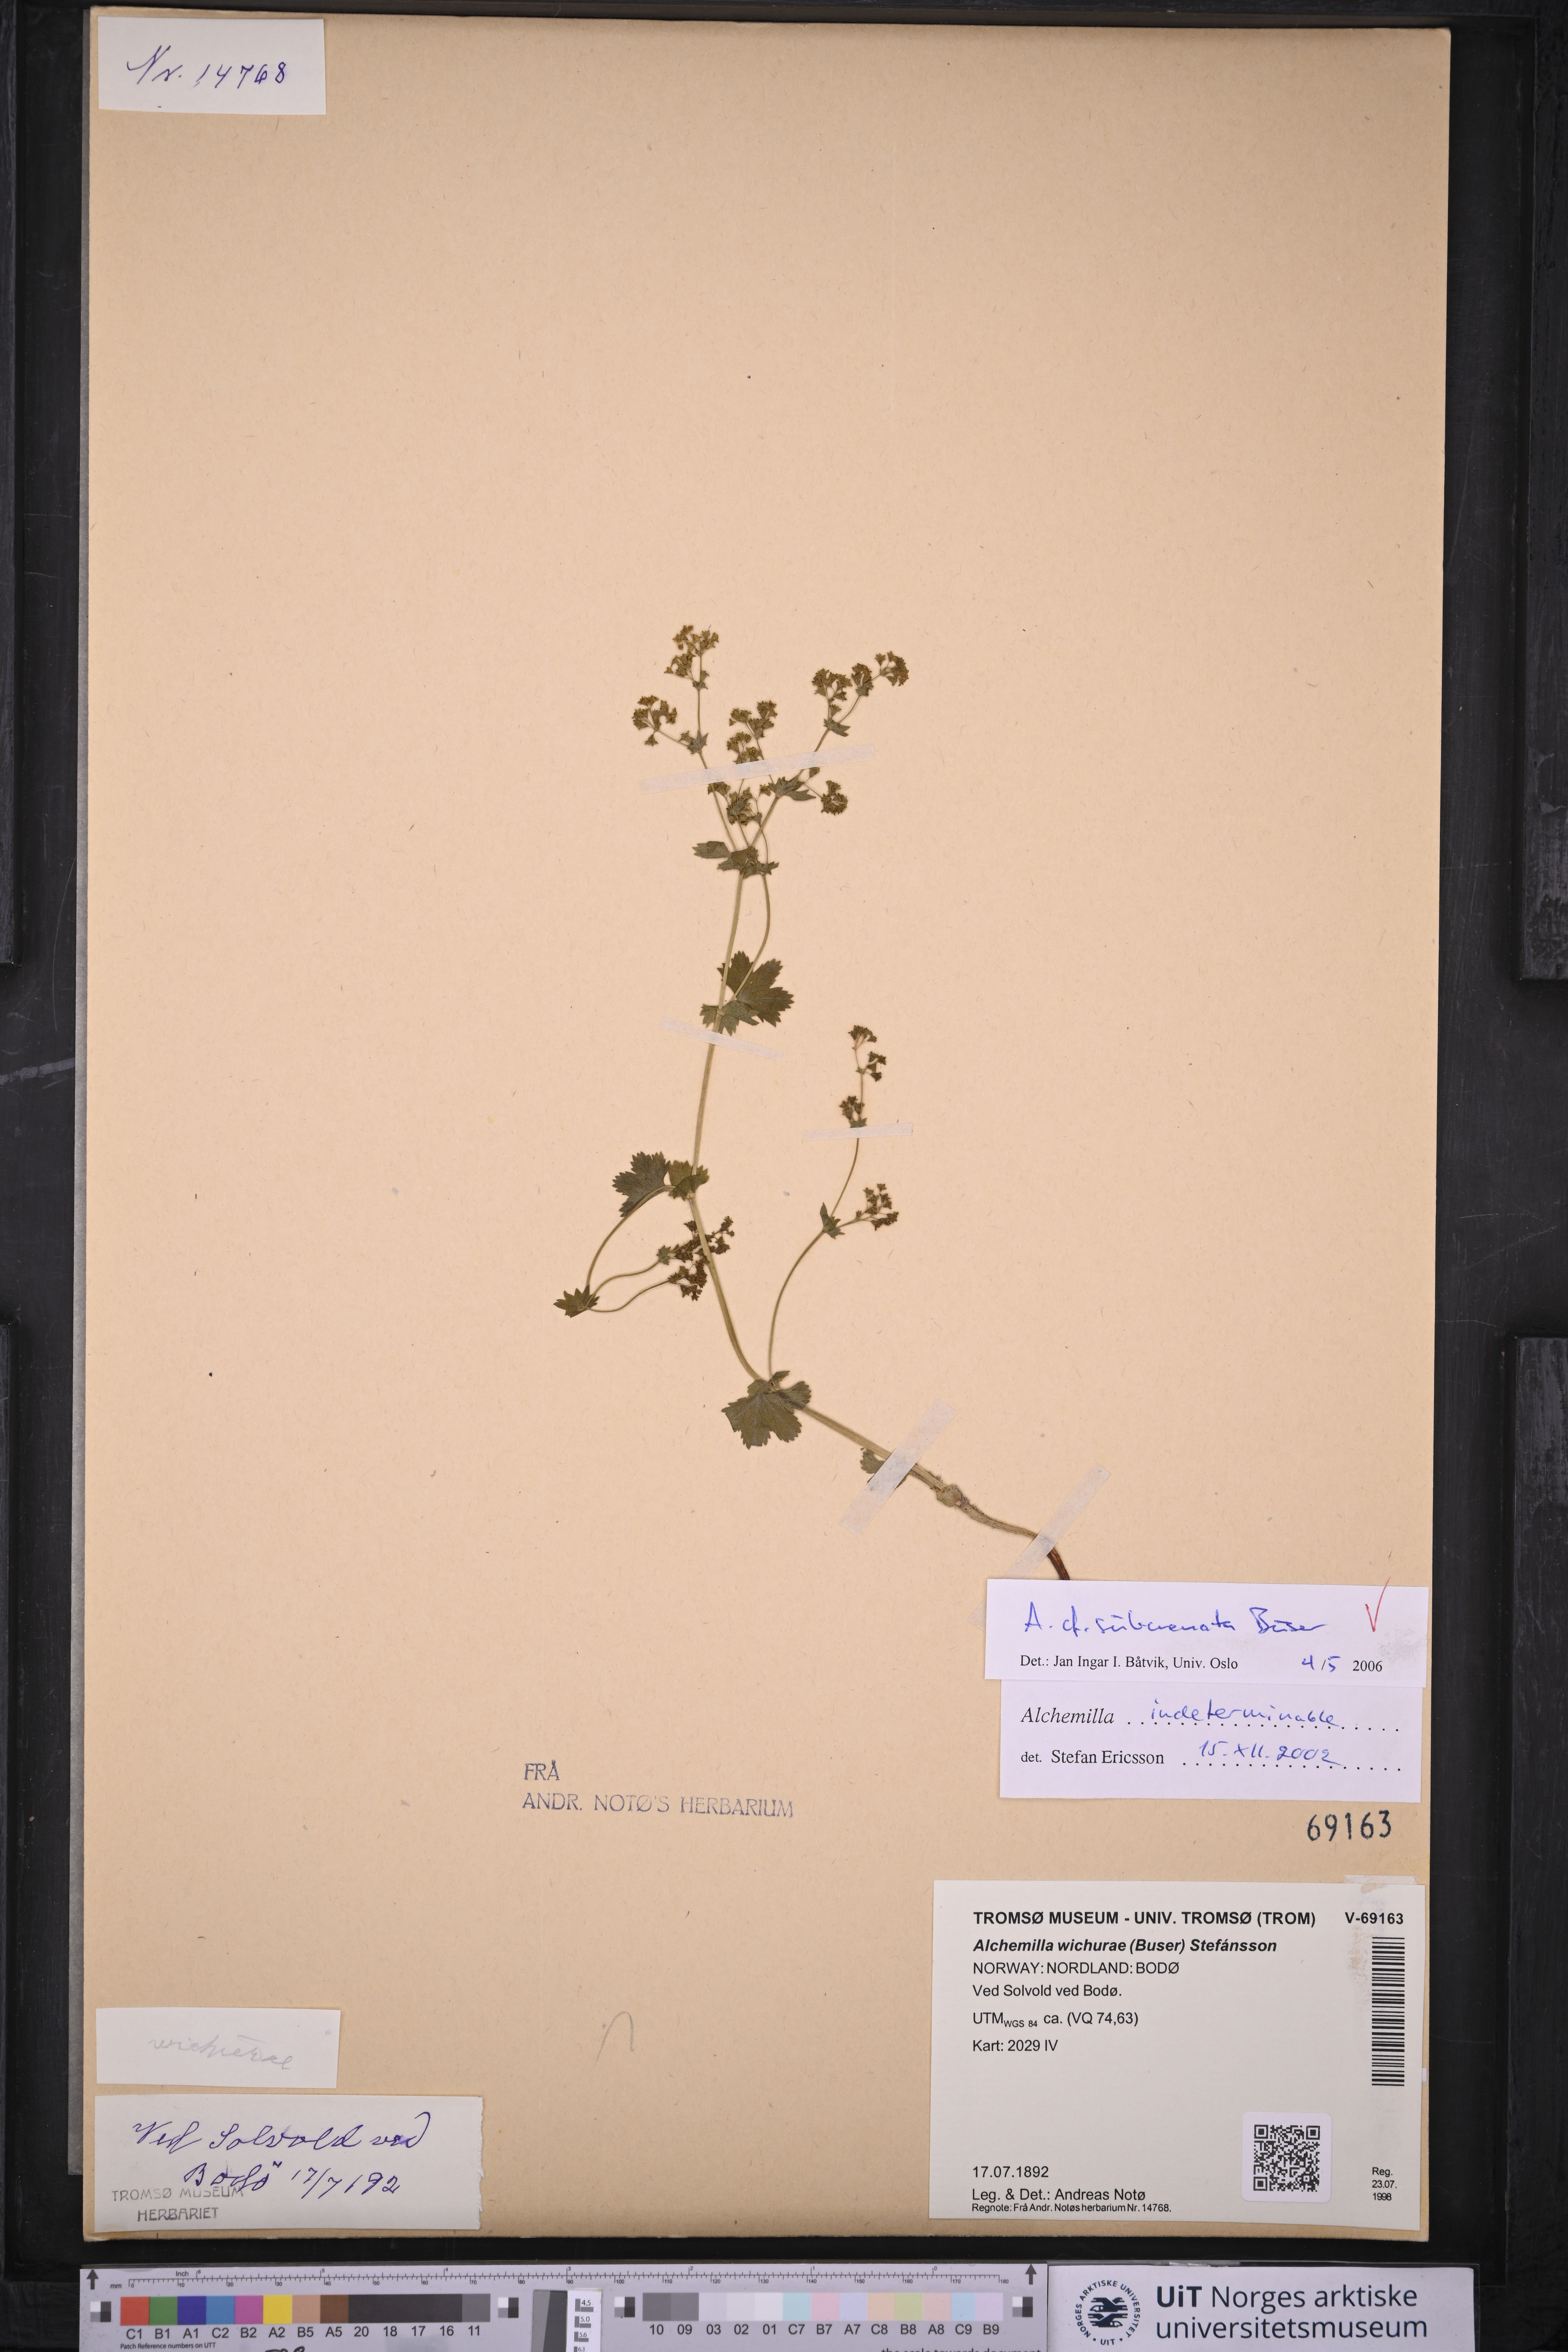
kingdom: Plantae
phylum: Tracheophyta
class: Magnoliopsida
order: Rosales
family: Rosaceae
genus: Alchemilla
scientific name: Alchemilla subcrenata
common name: Broadtooth lady's mantle
